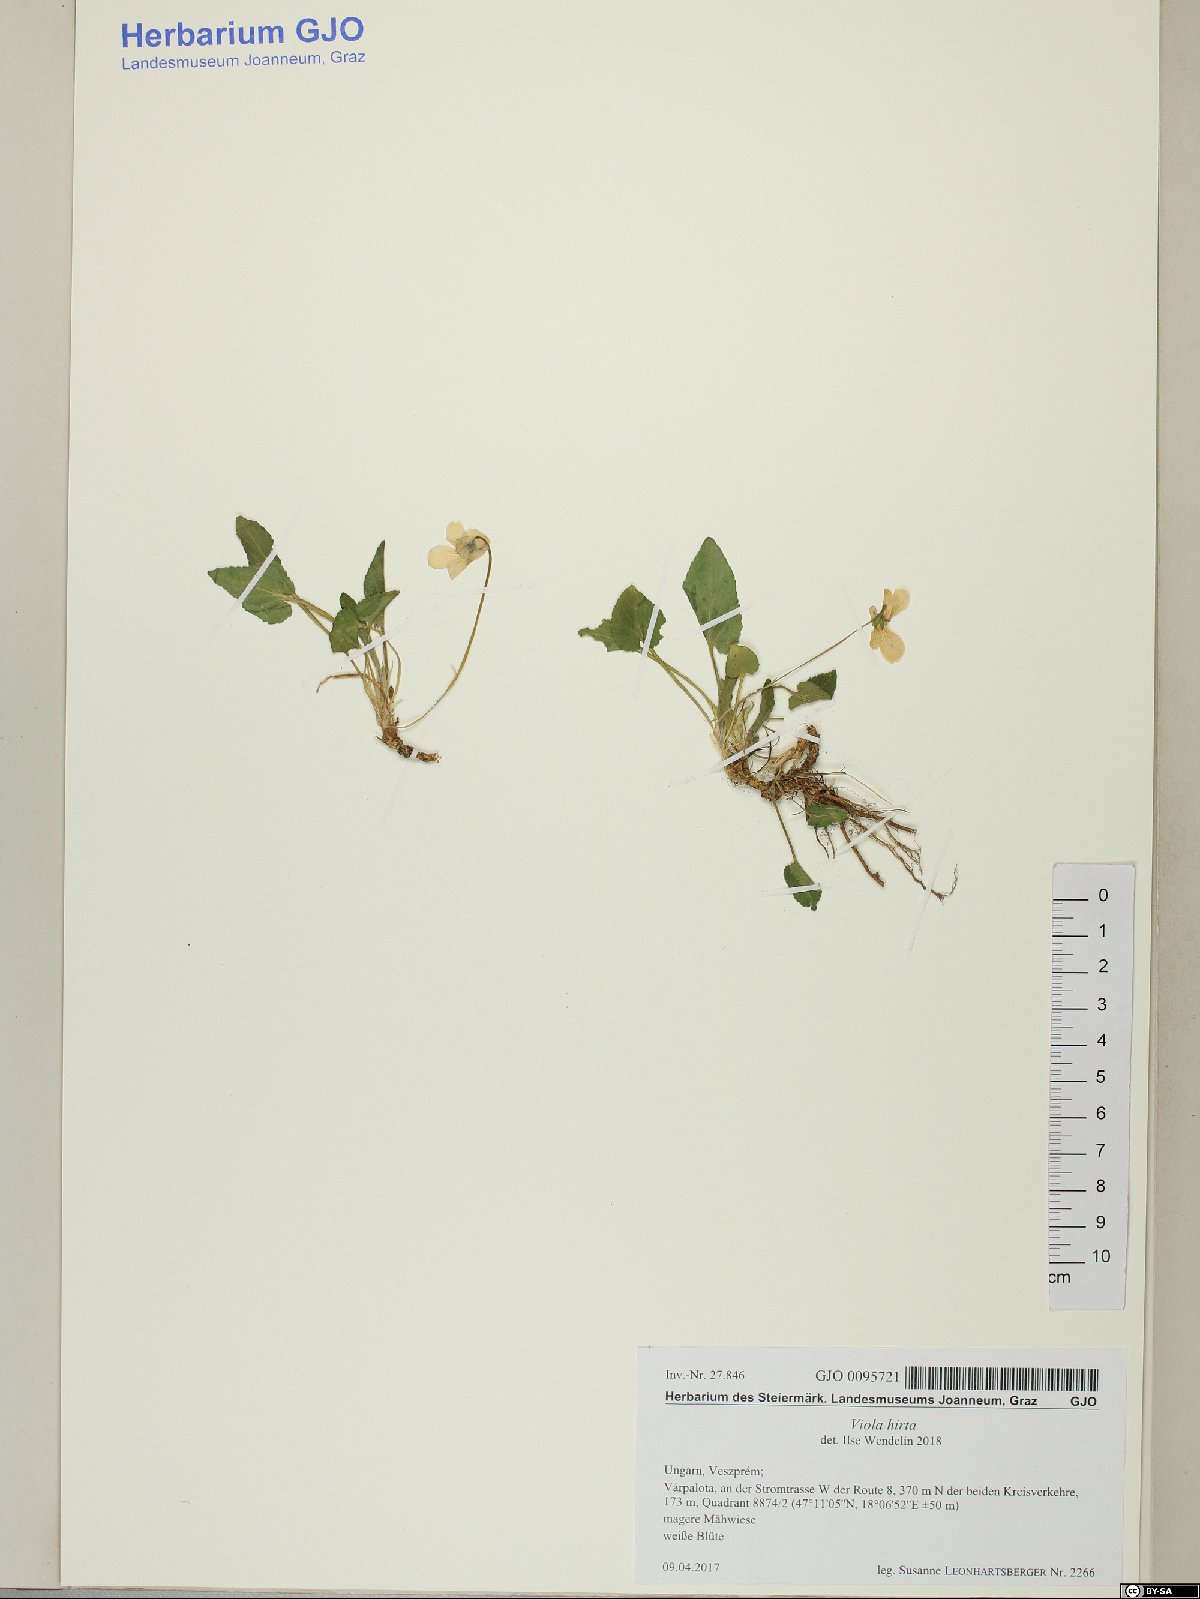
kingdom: Plantae
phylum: Tracheophyta
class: Magnoliopsida
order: Malpighiales
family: Violaceae
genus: Viola
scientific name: Viola hirta
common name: Hairy violet
